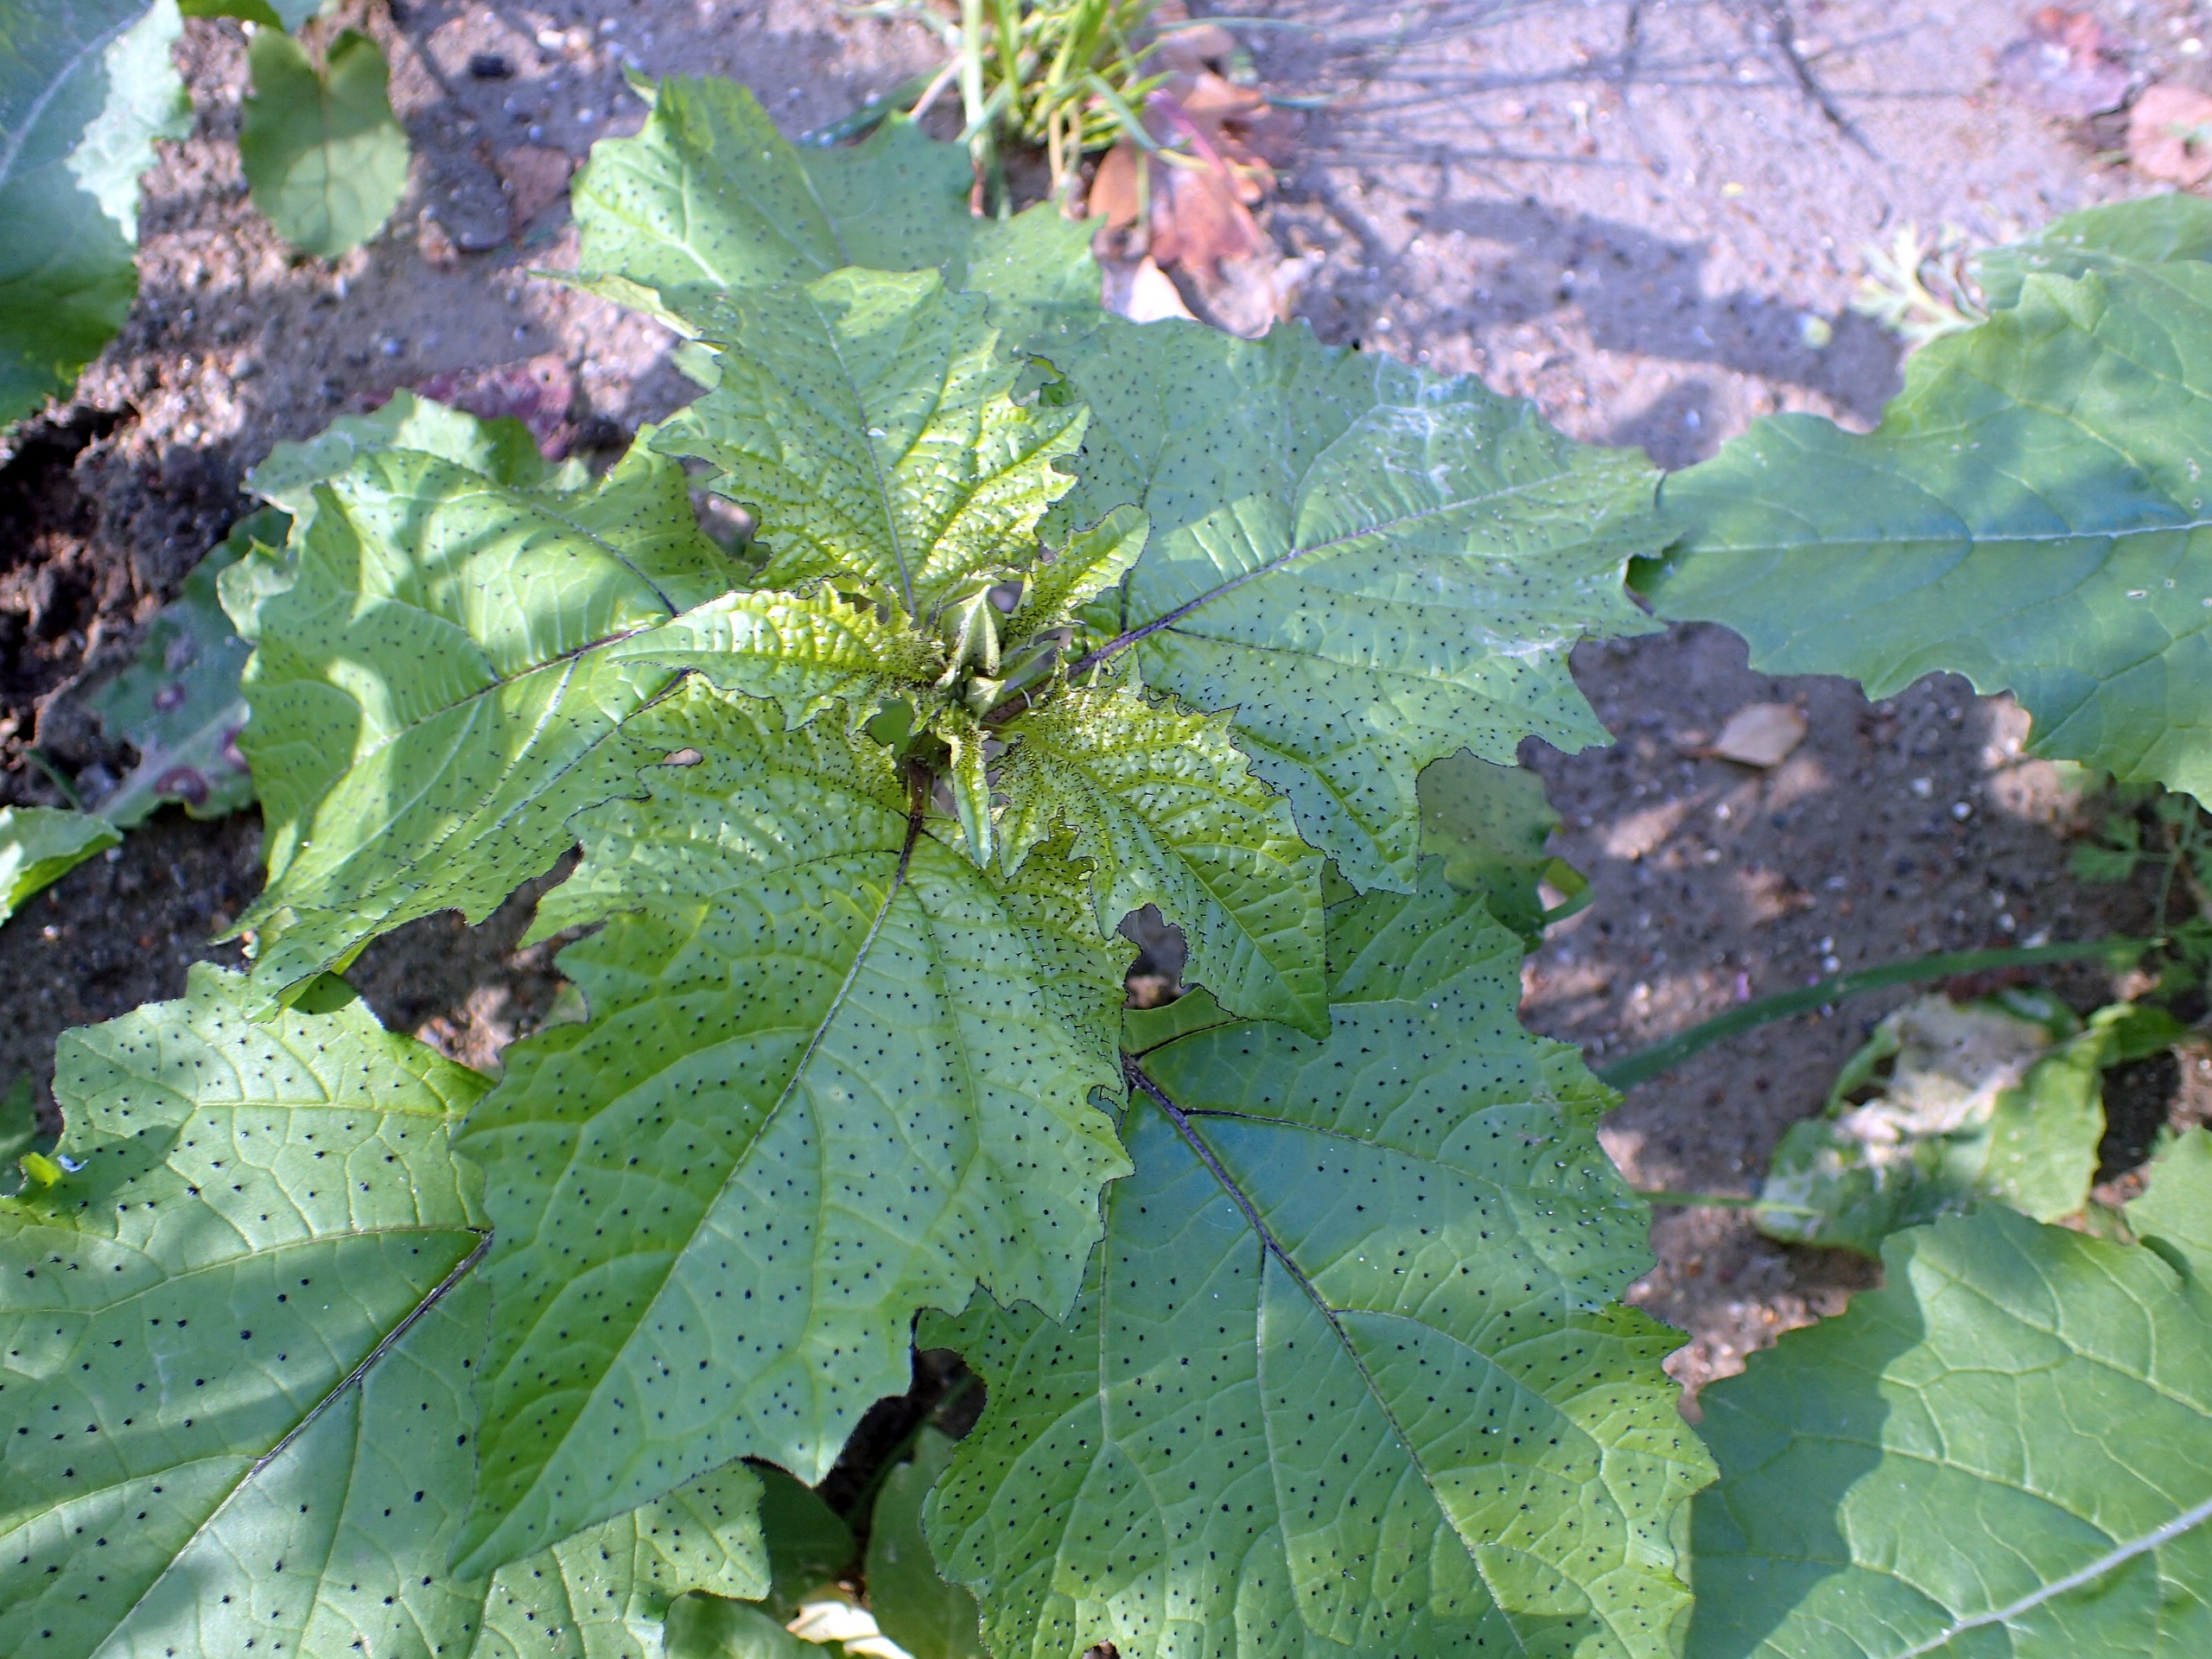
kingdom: Plantae
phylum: Tracheophyta
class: Magnoliopsida
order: Solanales
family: Solanaceae
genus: Nicandra
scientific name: Nicandra physalodes
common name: Kantbæger
